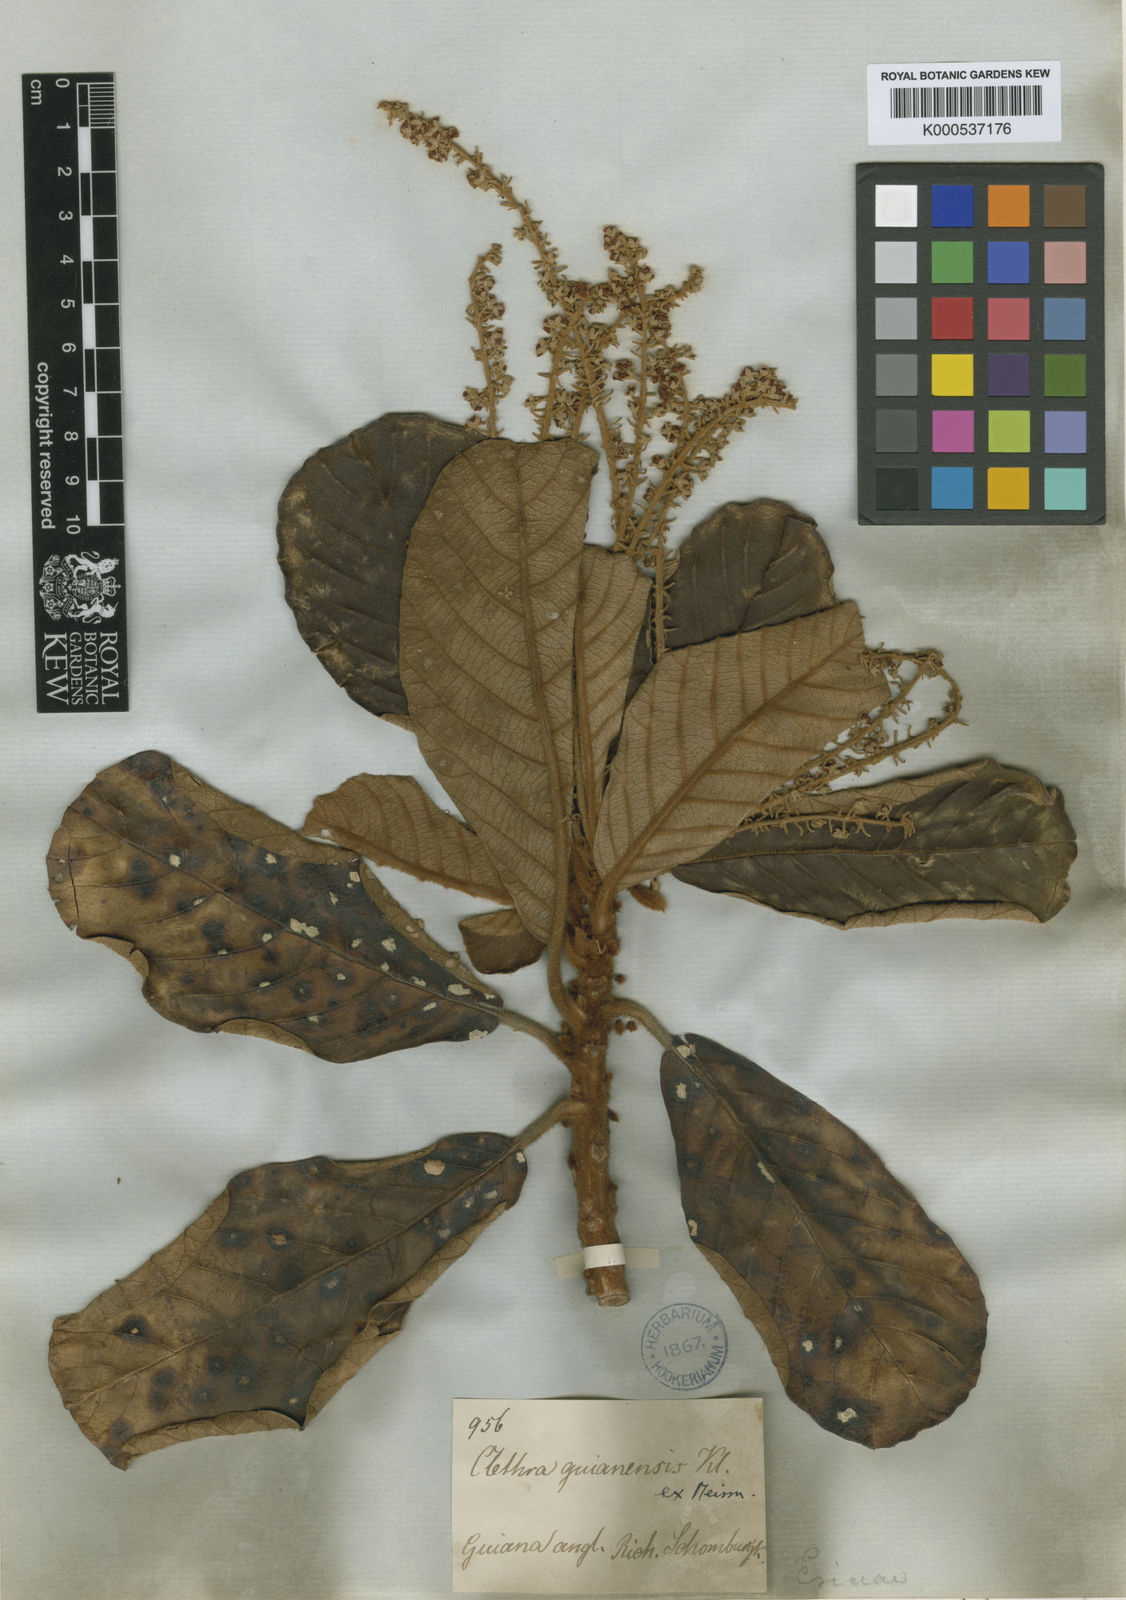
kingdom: Plantae
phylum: Tracheophyta
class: Magnoliopsida
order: Ericales
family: Clethraceae
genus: Clethra
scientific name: Clethra guyanensis
